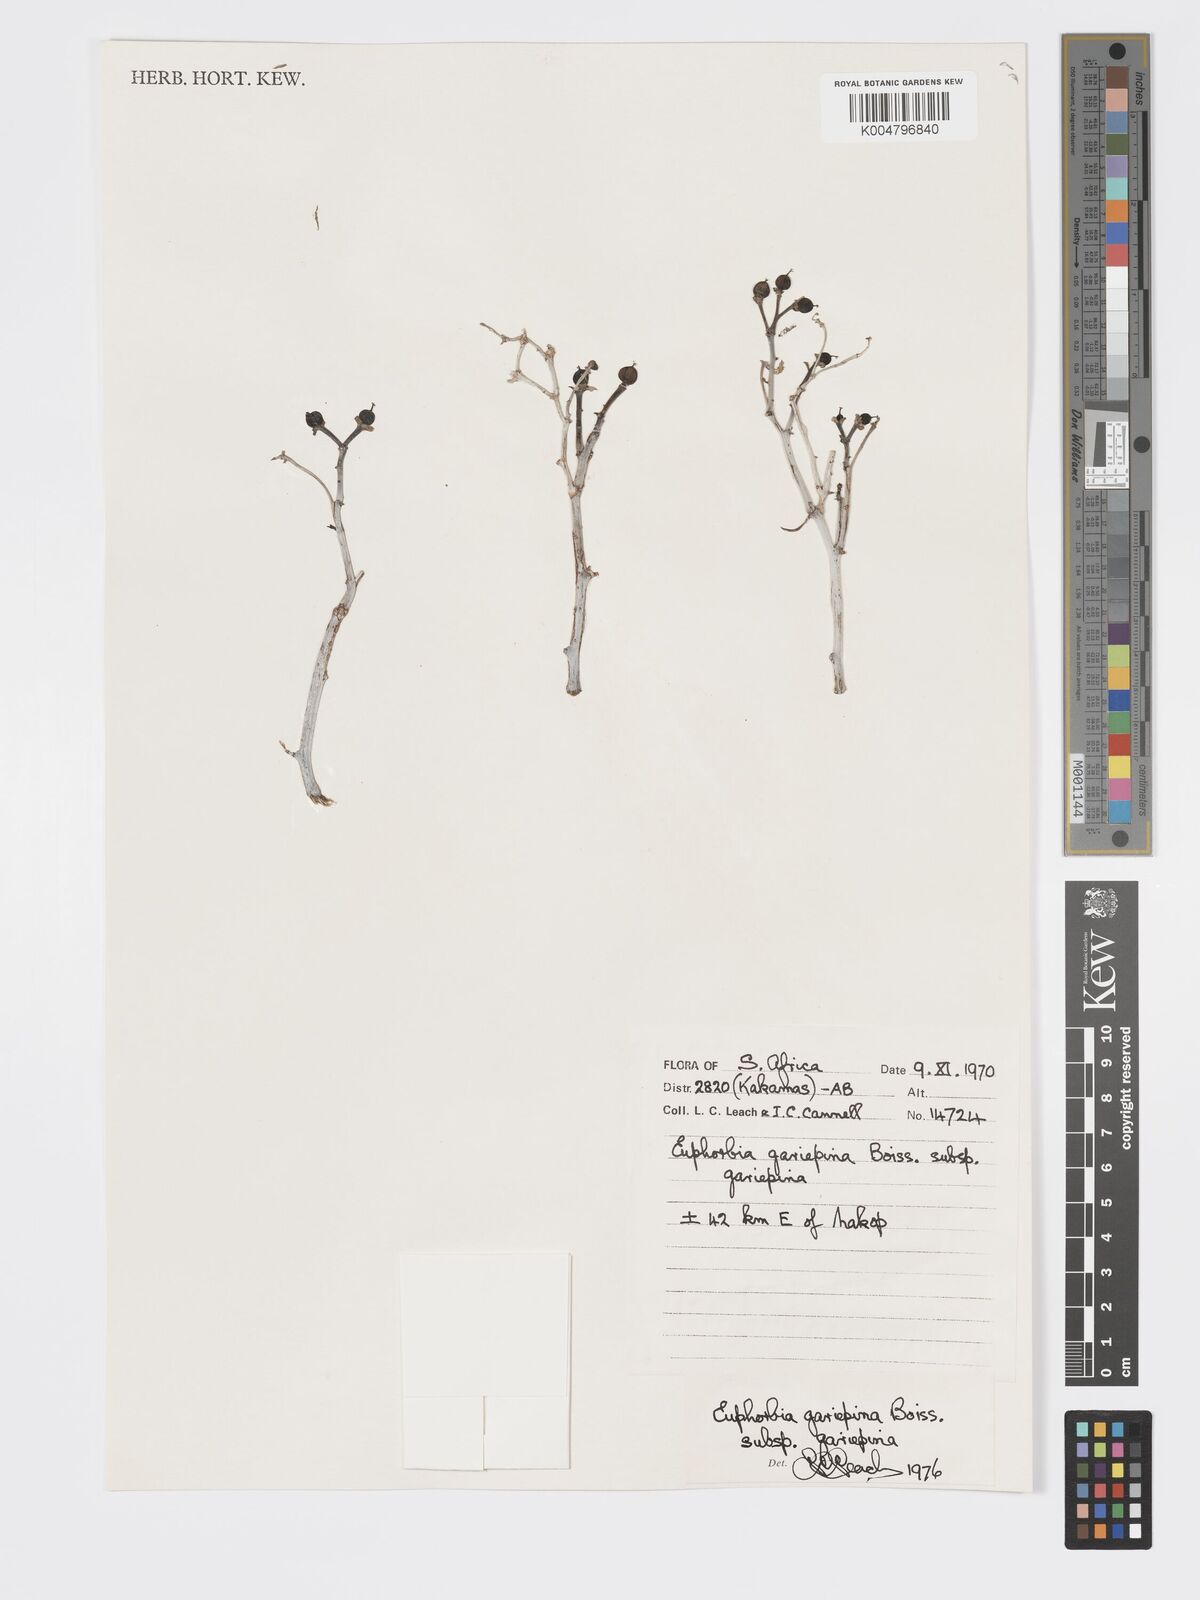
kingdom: Plantae
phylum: Tracheophyta
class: Magnoliopsida
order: Malpighiales
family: Euphorbiaceae
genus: Euphorbia
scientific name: Euphorbia gariepina
